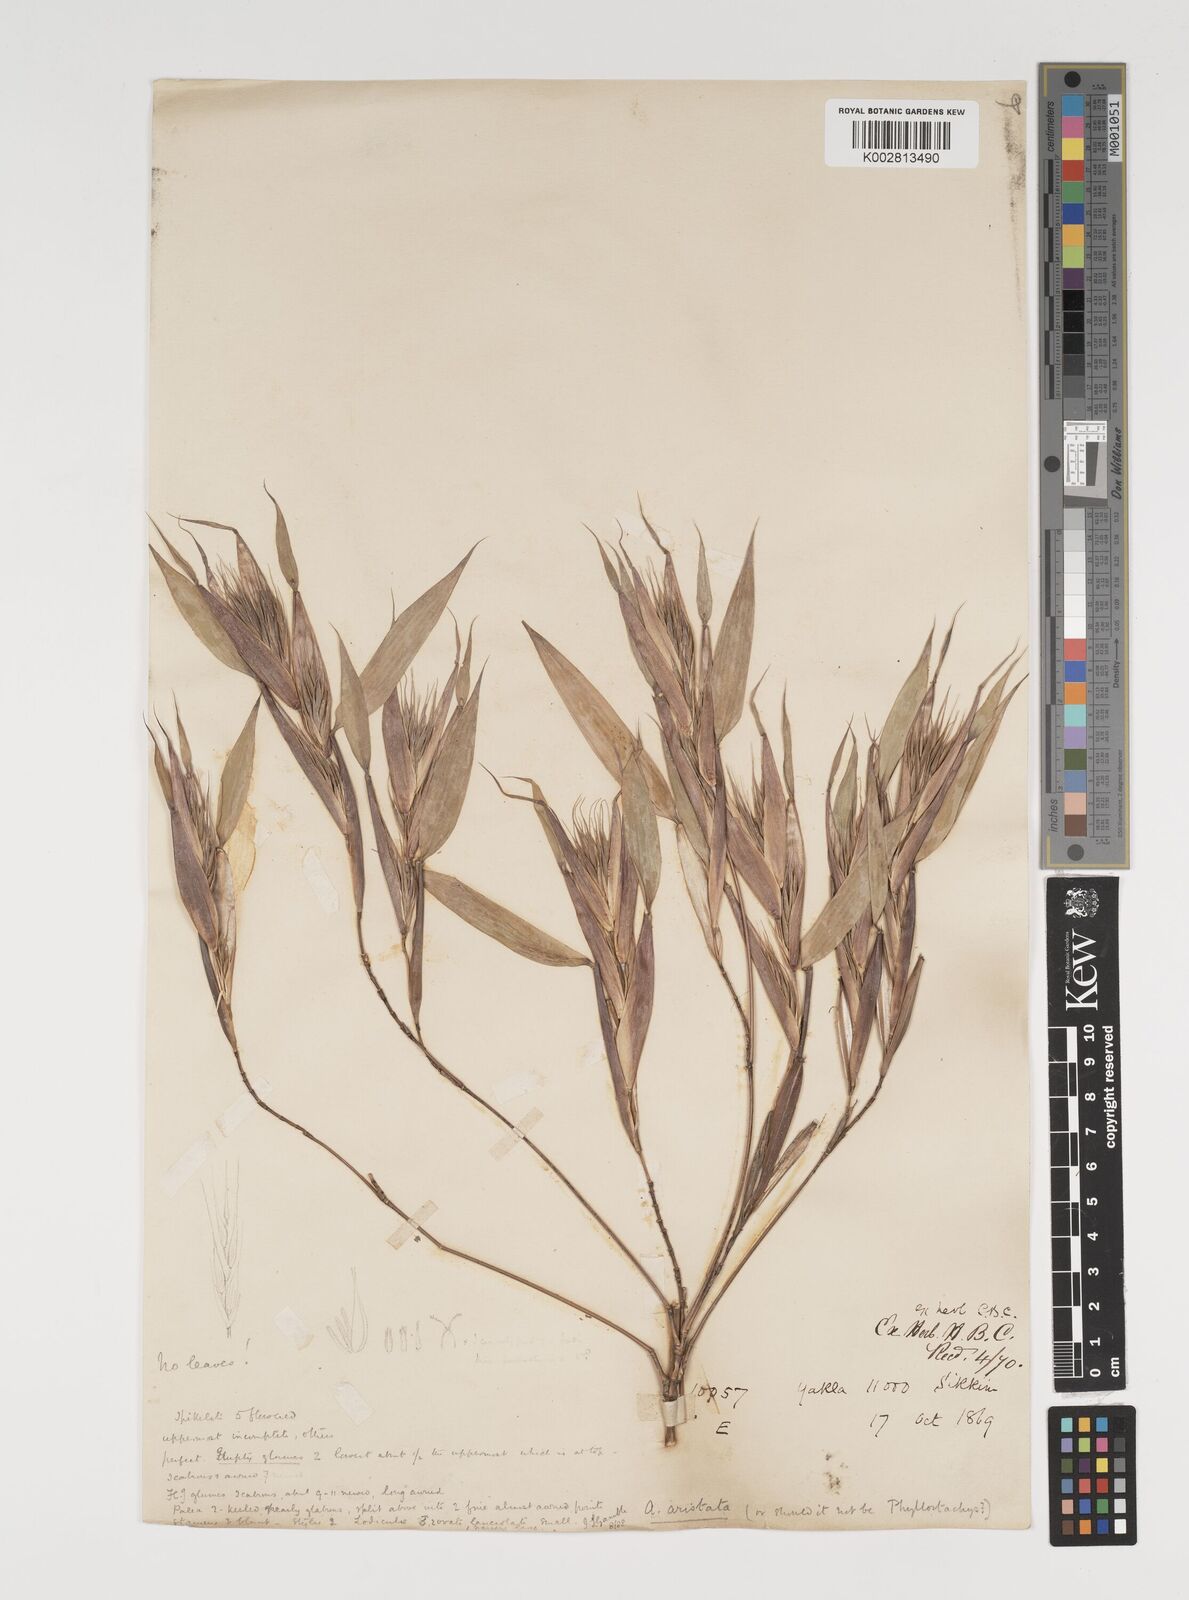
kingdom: Plantae
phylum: Tracheophyta
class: Liliopsida
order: Poales
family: Poaceae
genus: Thamnocalamus
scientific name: Thamnocalamus spathiflorus
